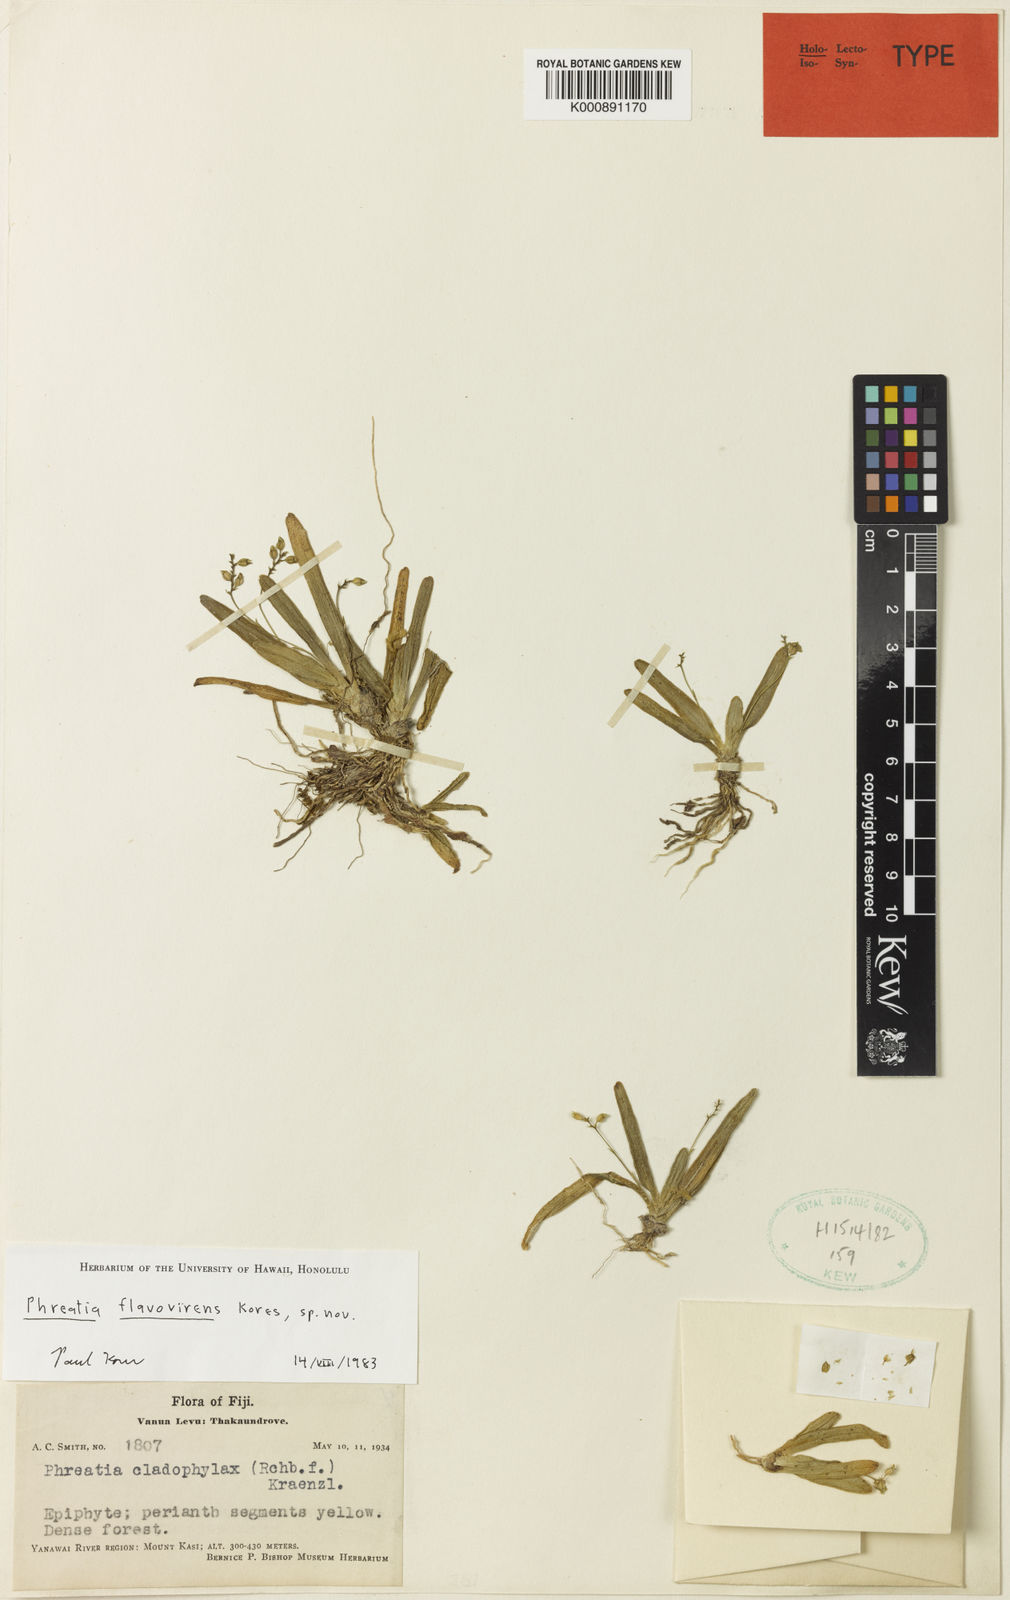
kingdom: Plantae
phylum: Tracheophyta
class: Liliopsida
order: Asparagales
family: Orchidaceae
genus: Phreatia
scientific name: Phreatia flavovirens
